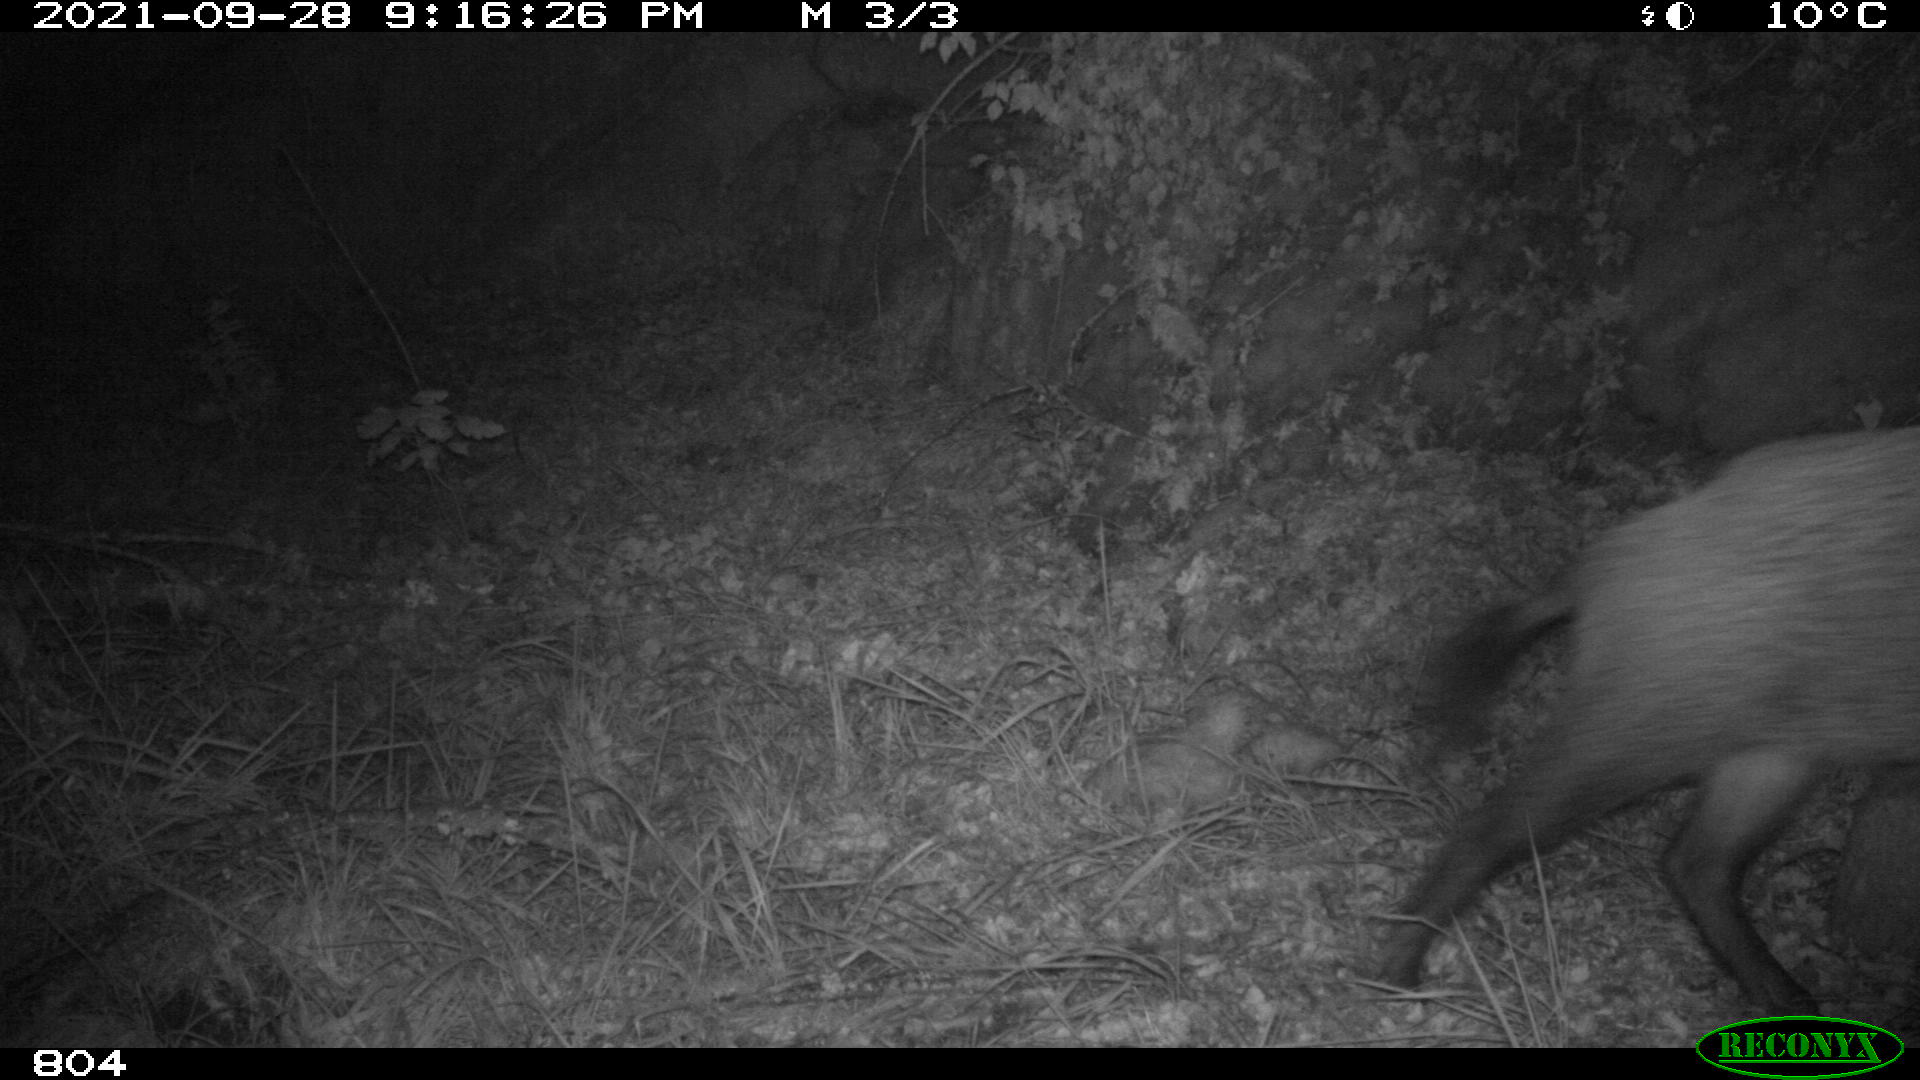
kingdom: Animalia
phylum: Chordata
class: Mammalia
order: Artiodactyla
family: Suidae
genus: Sus
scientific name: Sus scrofa
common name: Wild boar
